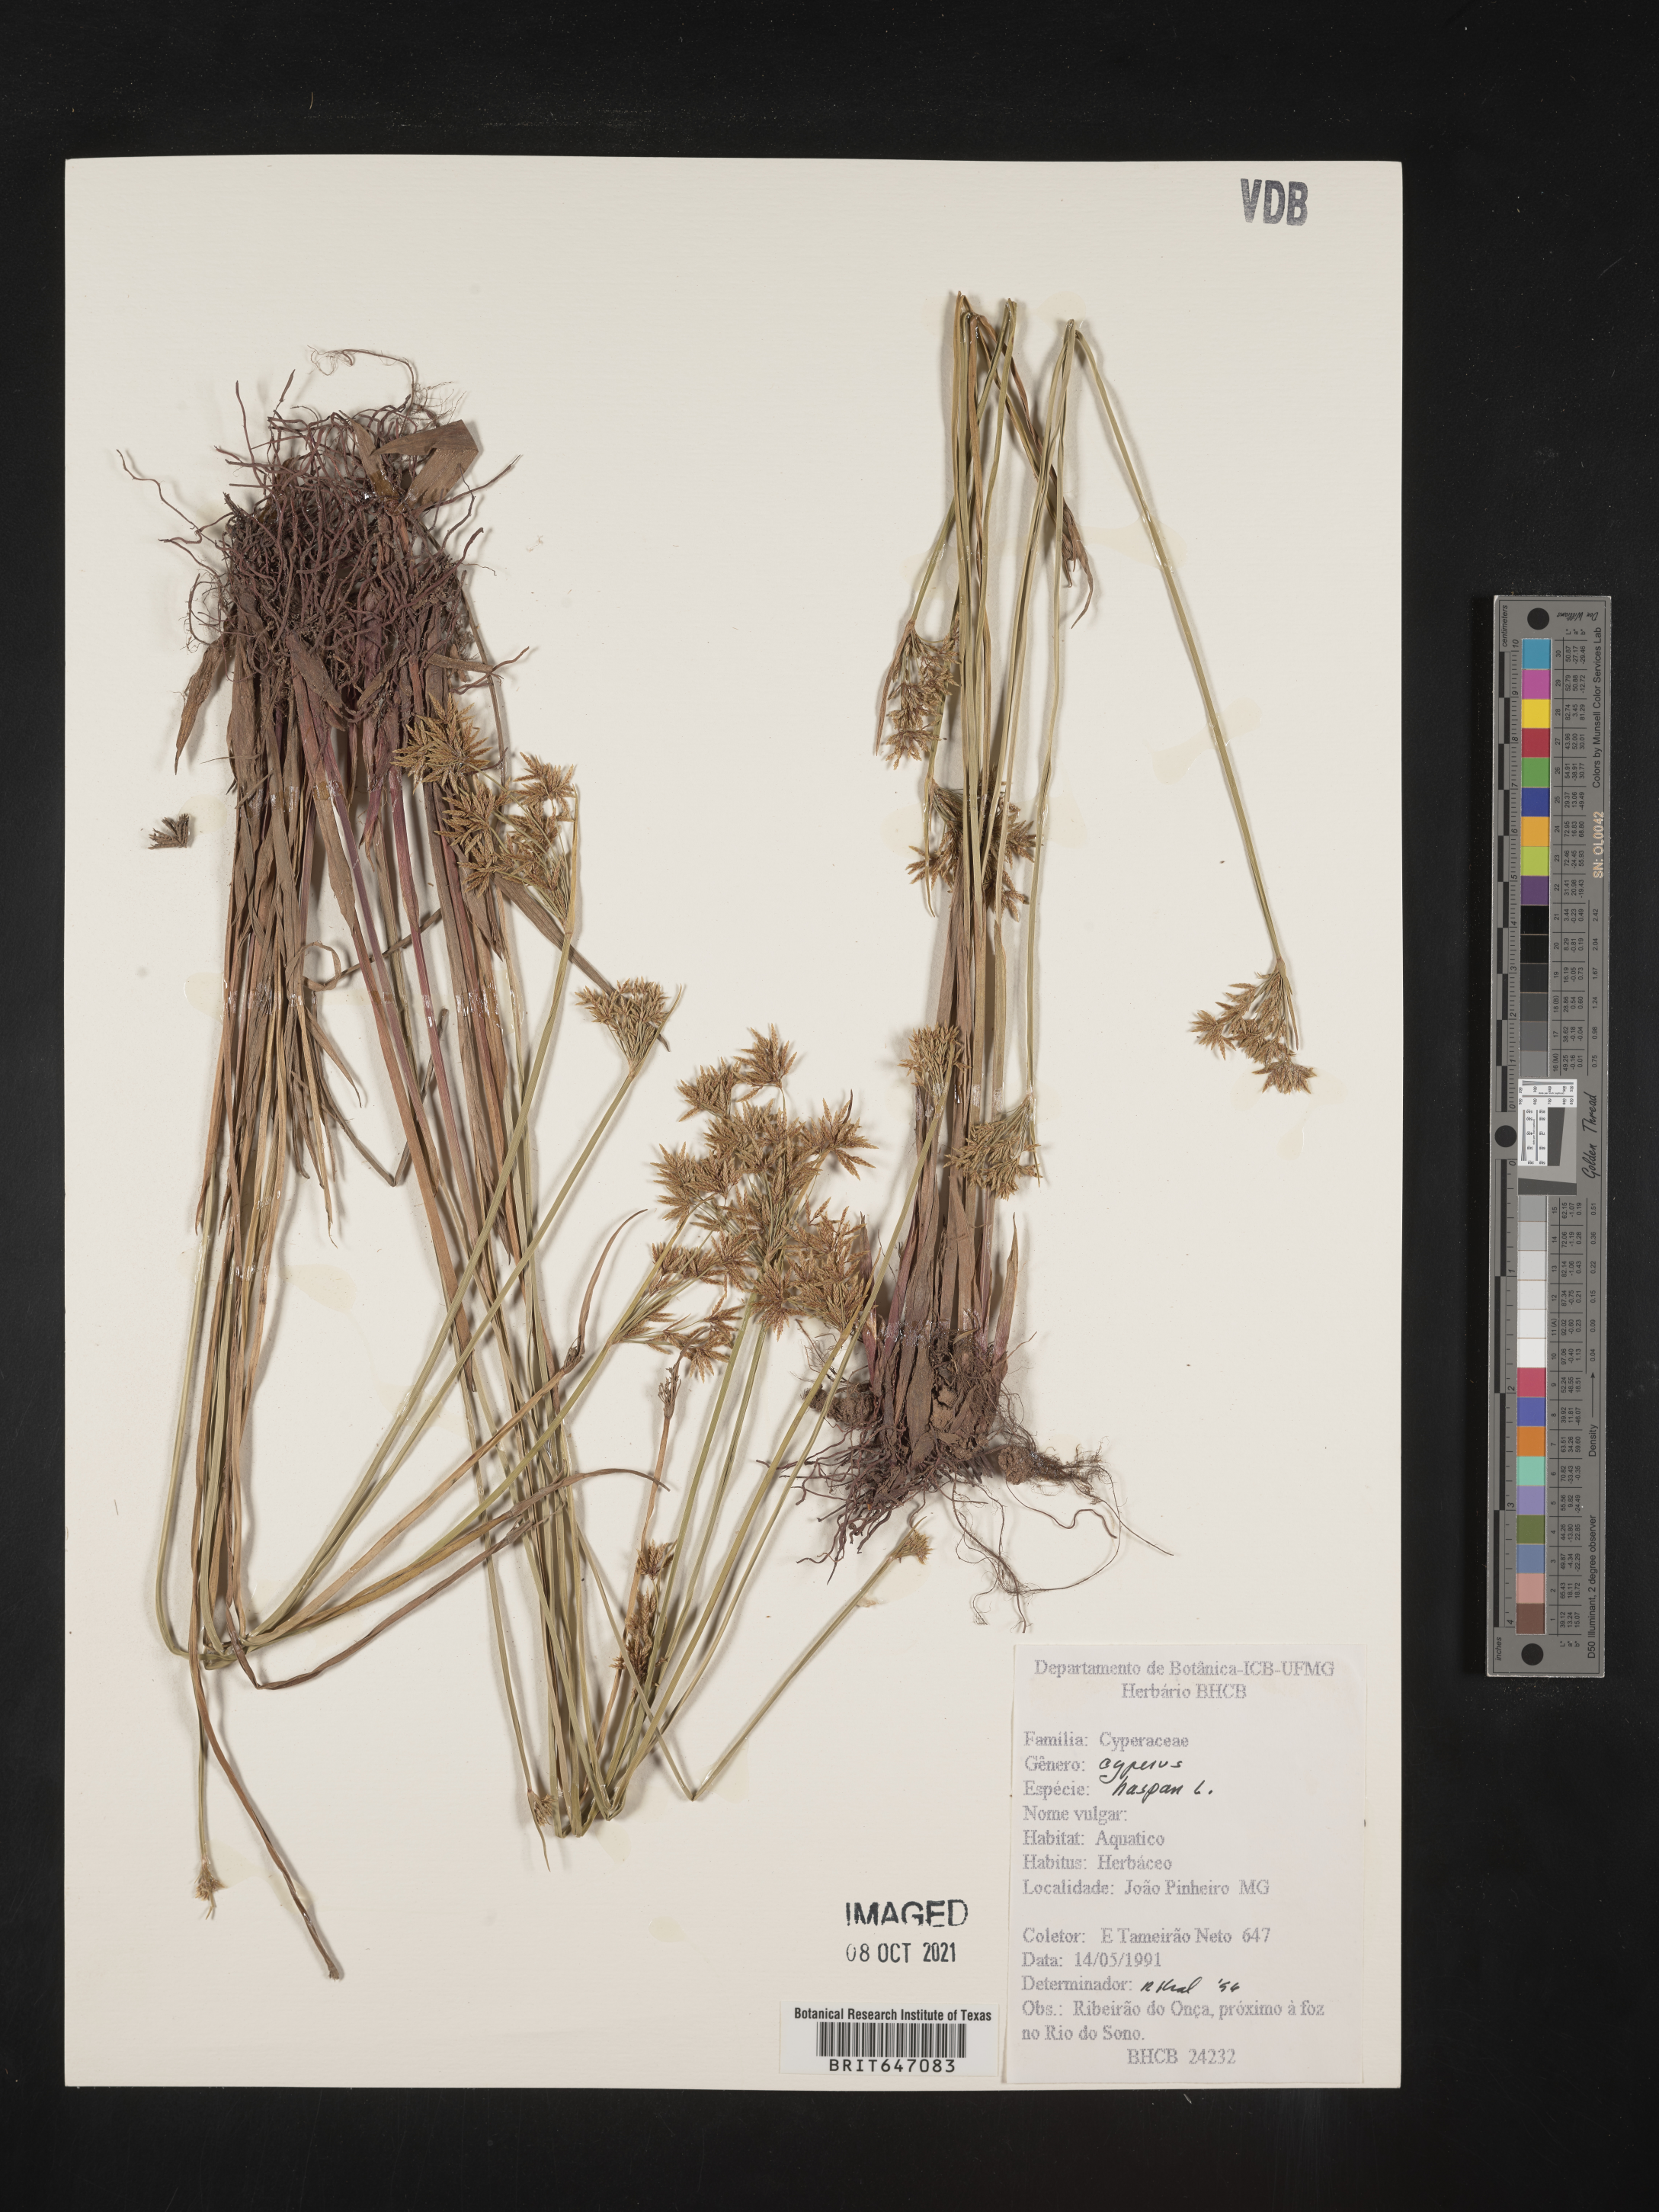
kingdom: Plantae
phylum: Tracheophyta
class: Liliopsida
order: Poales
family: Cyperaceae
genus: Cyperus
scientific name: Cyperus haspan
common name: Haspan flatsedge
